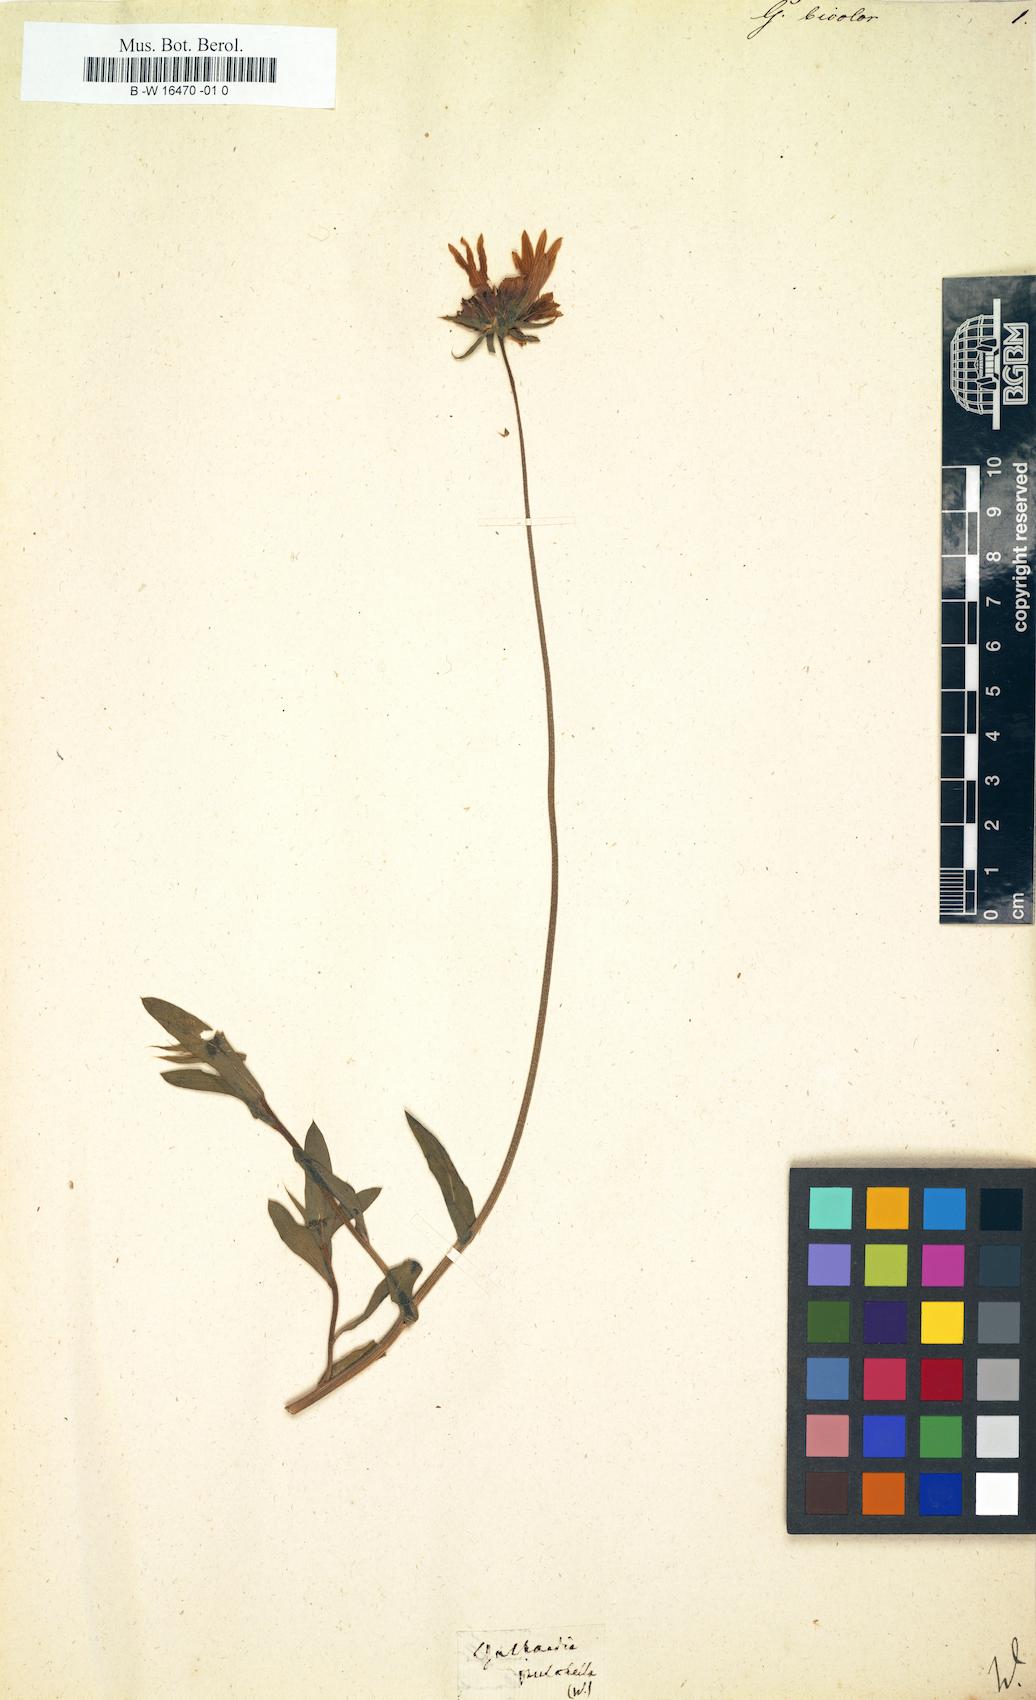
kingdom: Plantae
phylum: Tracheophyta
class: Magnoliopsida
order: Asterales
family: Asteraceae
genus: Galardia
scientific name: Galardia
